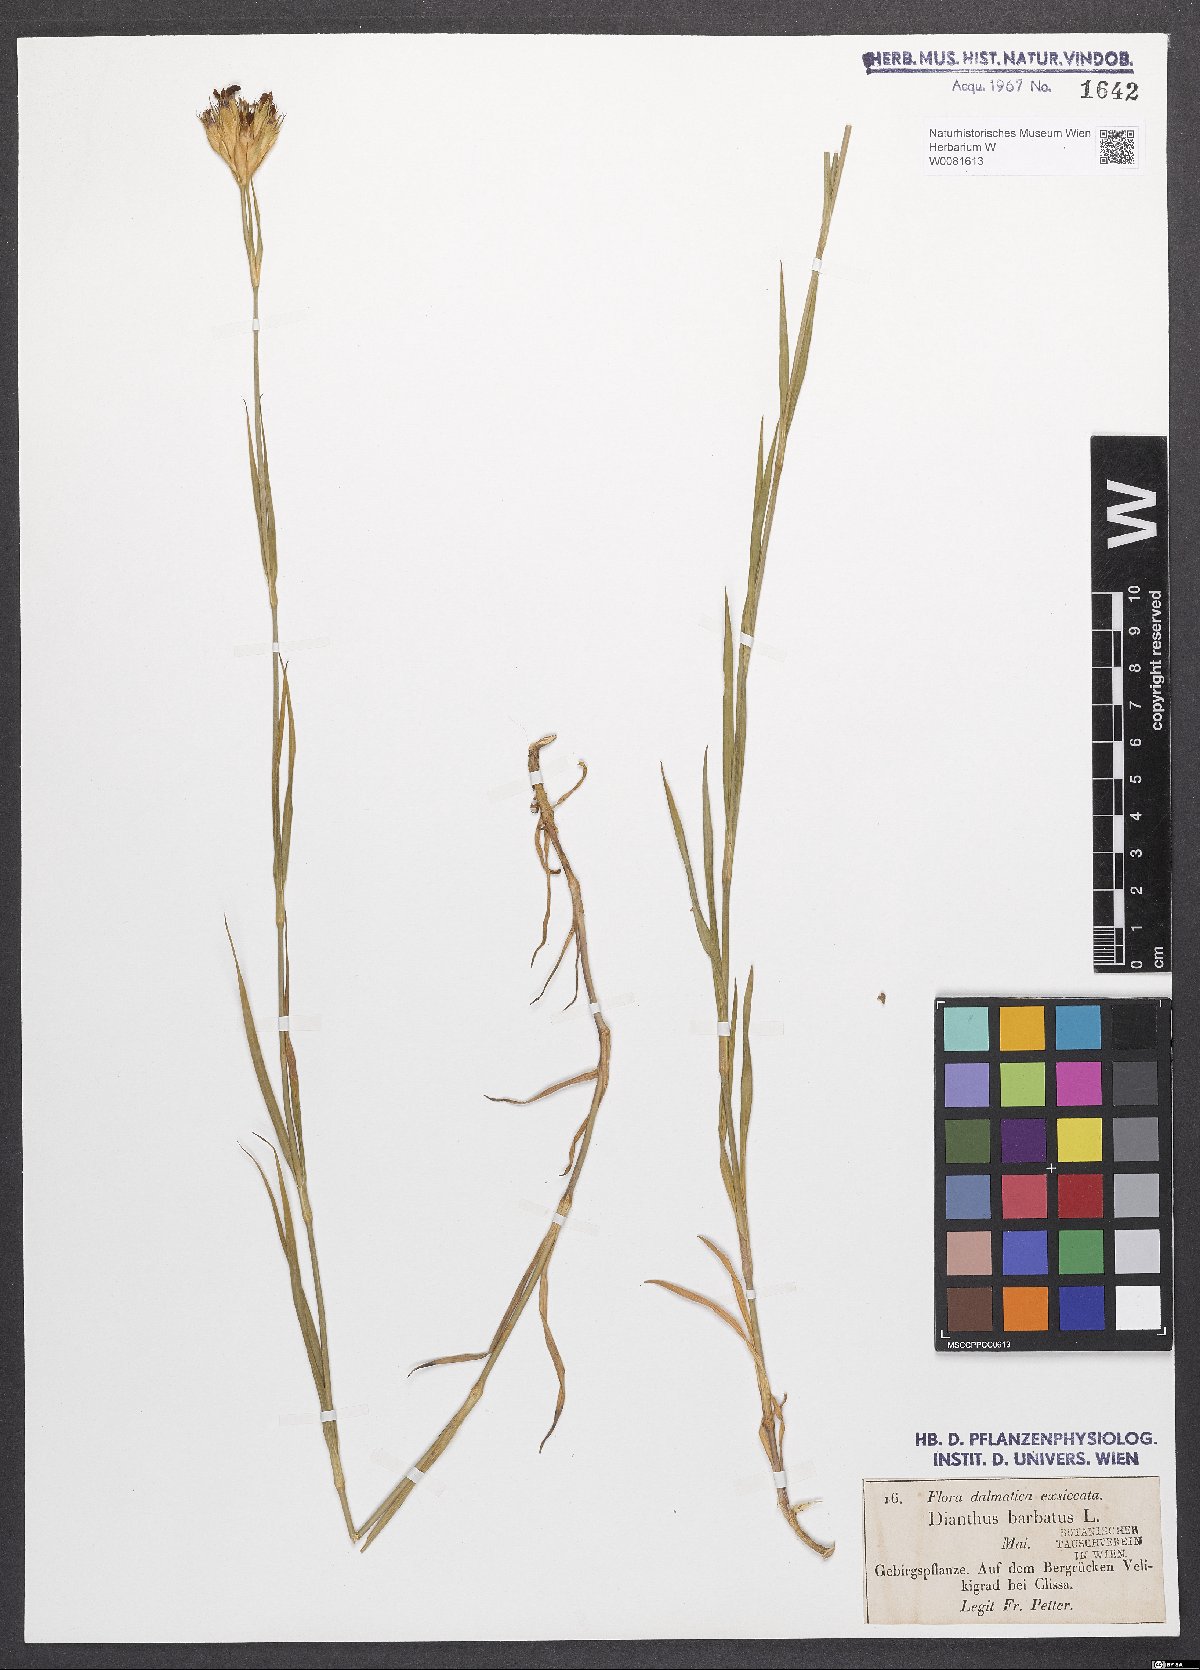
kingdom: Plantae
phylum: Tracheophyta
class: Magnoliopsida
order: Caryophyllales
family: Caryophyllaceae
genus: Dianthus
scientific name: Dianthus barbatus
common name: Sweet-william
